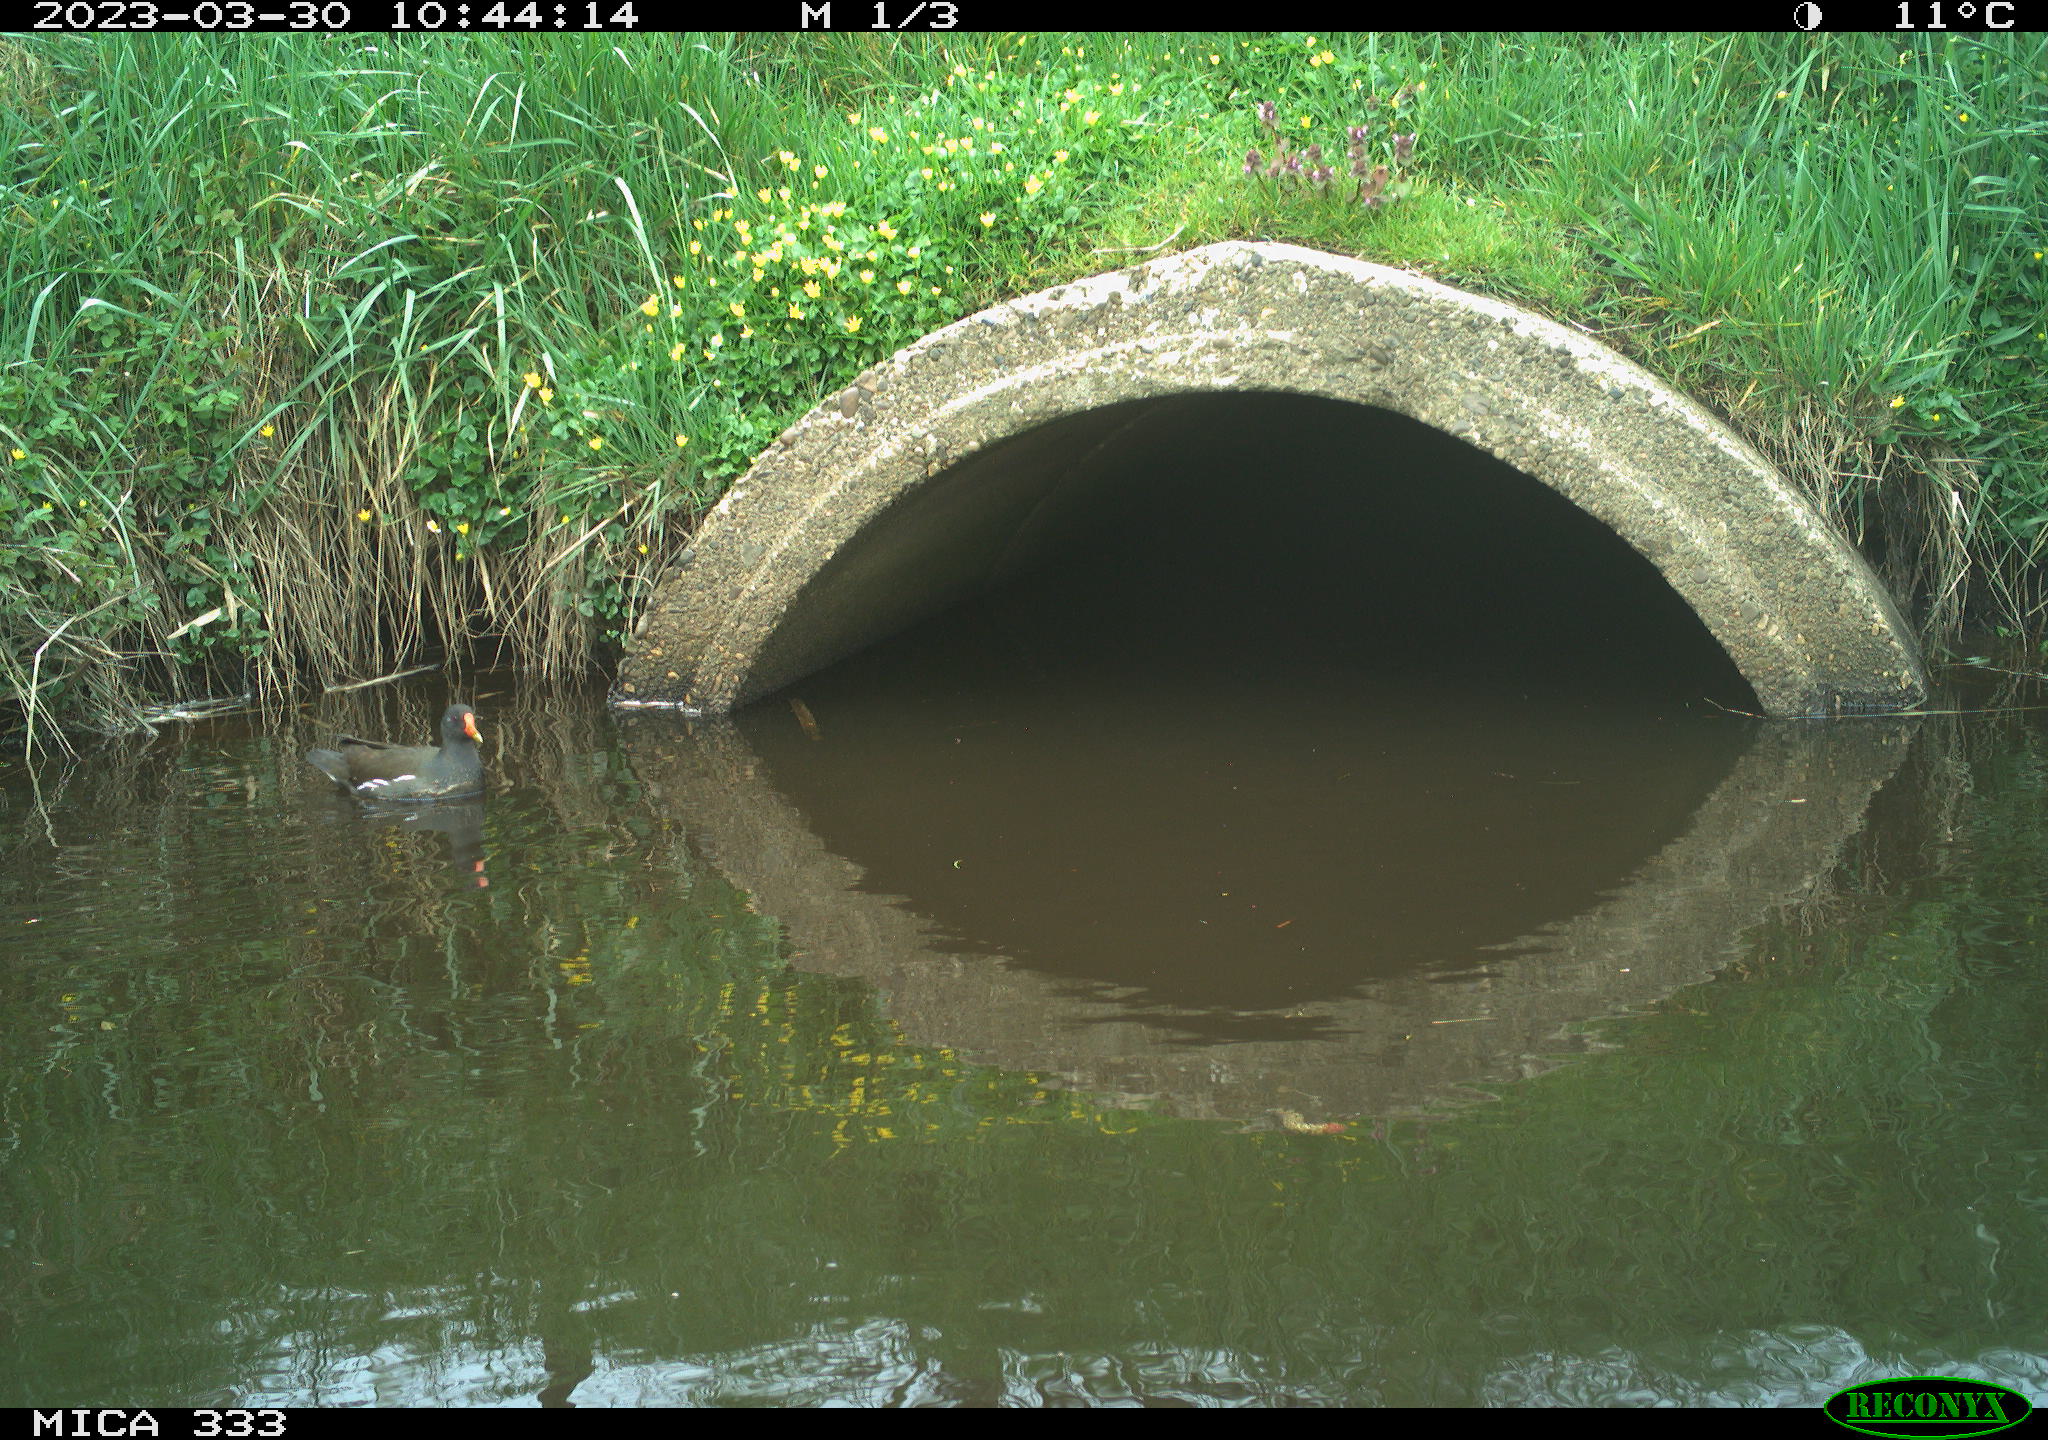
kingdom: Animalia
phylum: Chordata
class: Aves
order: Gruiformes
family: Rallidae
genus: Gallinula
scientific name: Gallinula chloropus
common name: Common moorhen
